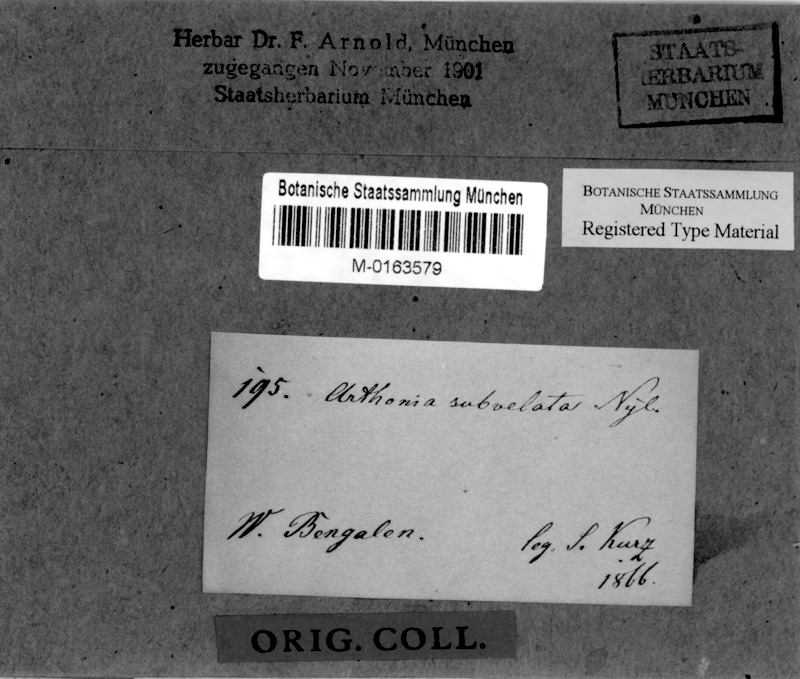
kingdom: Fungi
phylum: Ascomycota
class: Arthoniomycetes
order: Arthoniales
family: Arthoniaceae
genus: Arthonia
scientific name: Arthonia
